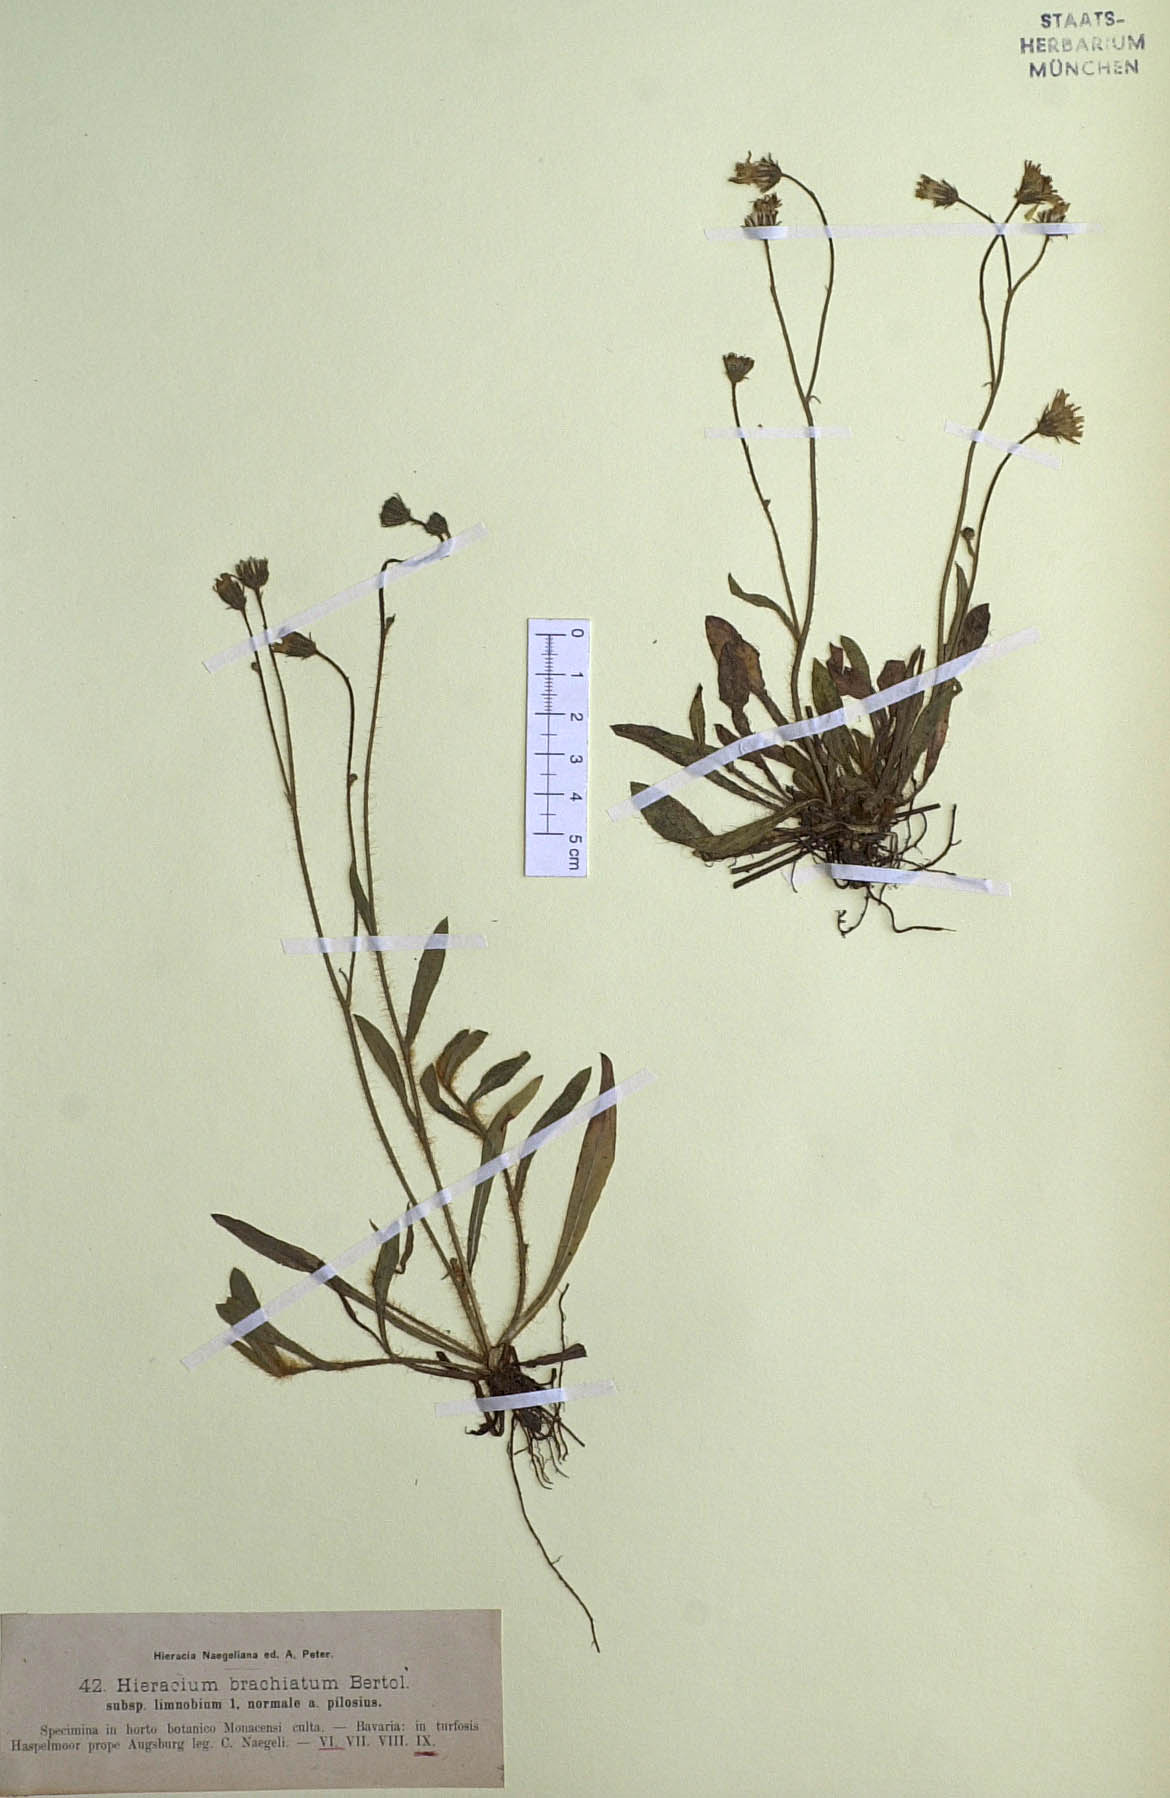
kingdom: Plantae
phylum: Tracheophyta
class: Magnoliopsida
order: Asterales
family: Asteraceae
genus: Pilosella
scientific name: Pilosella acutifolia
